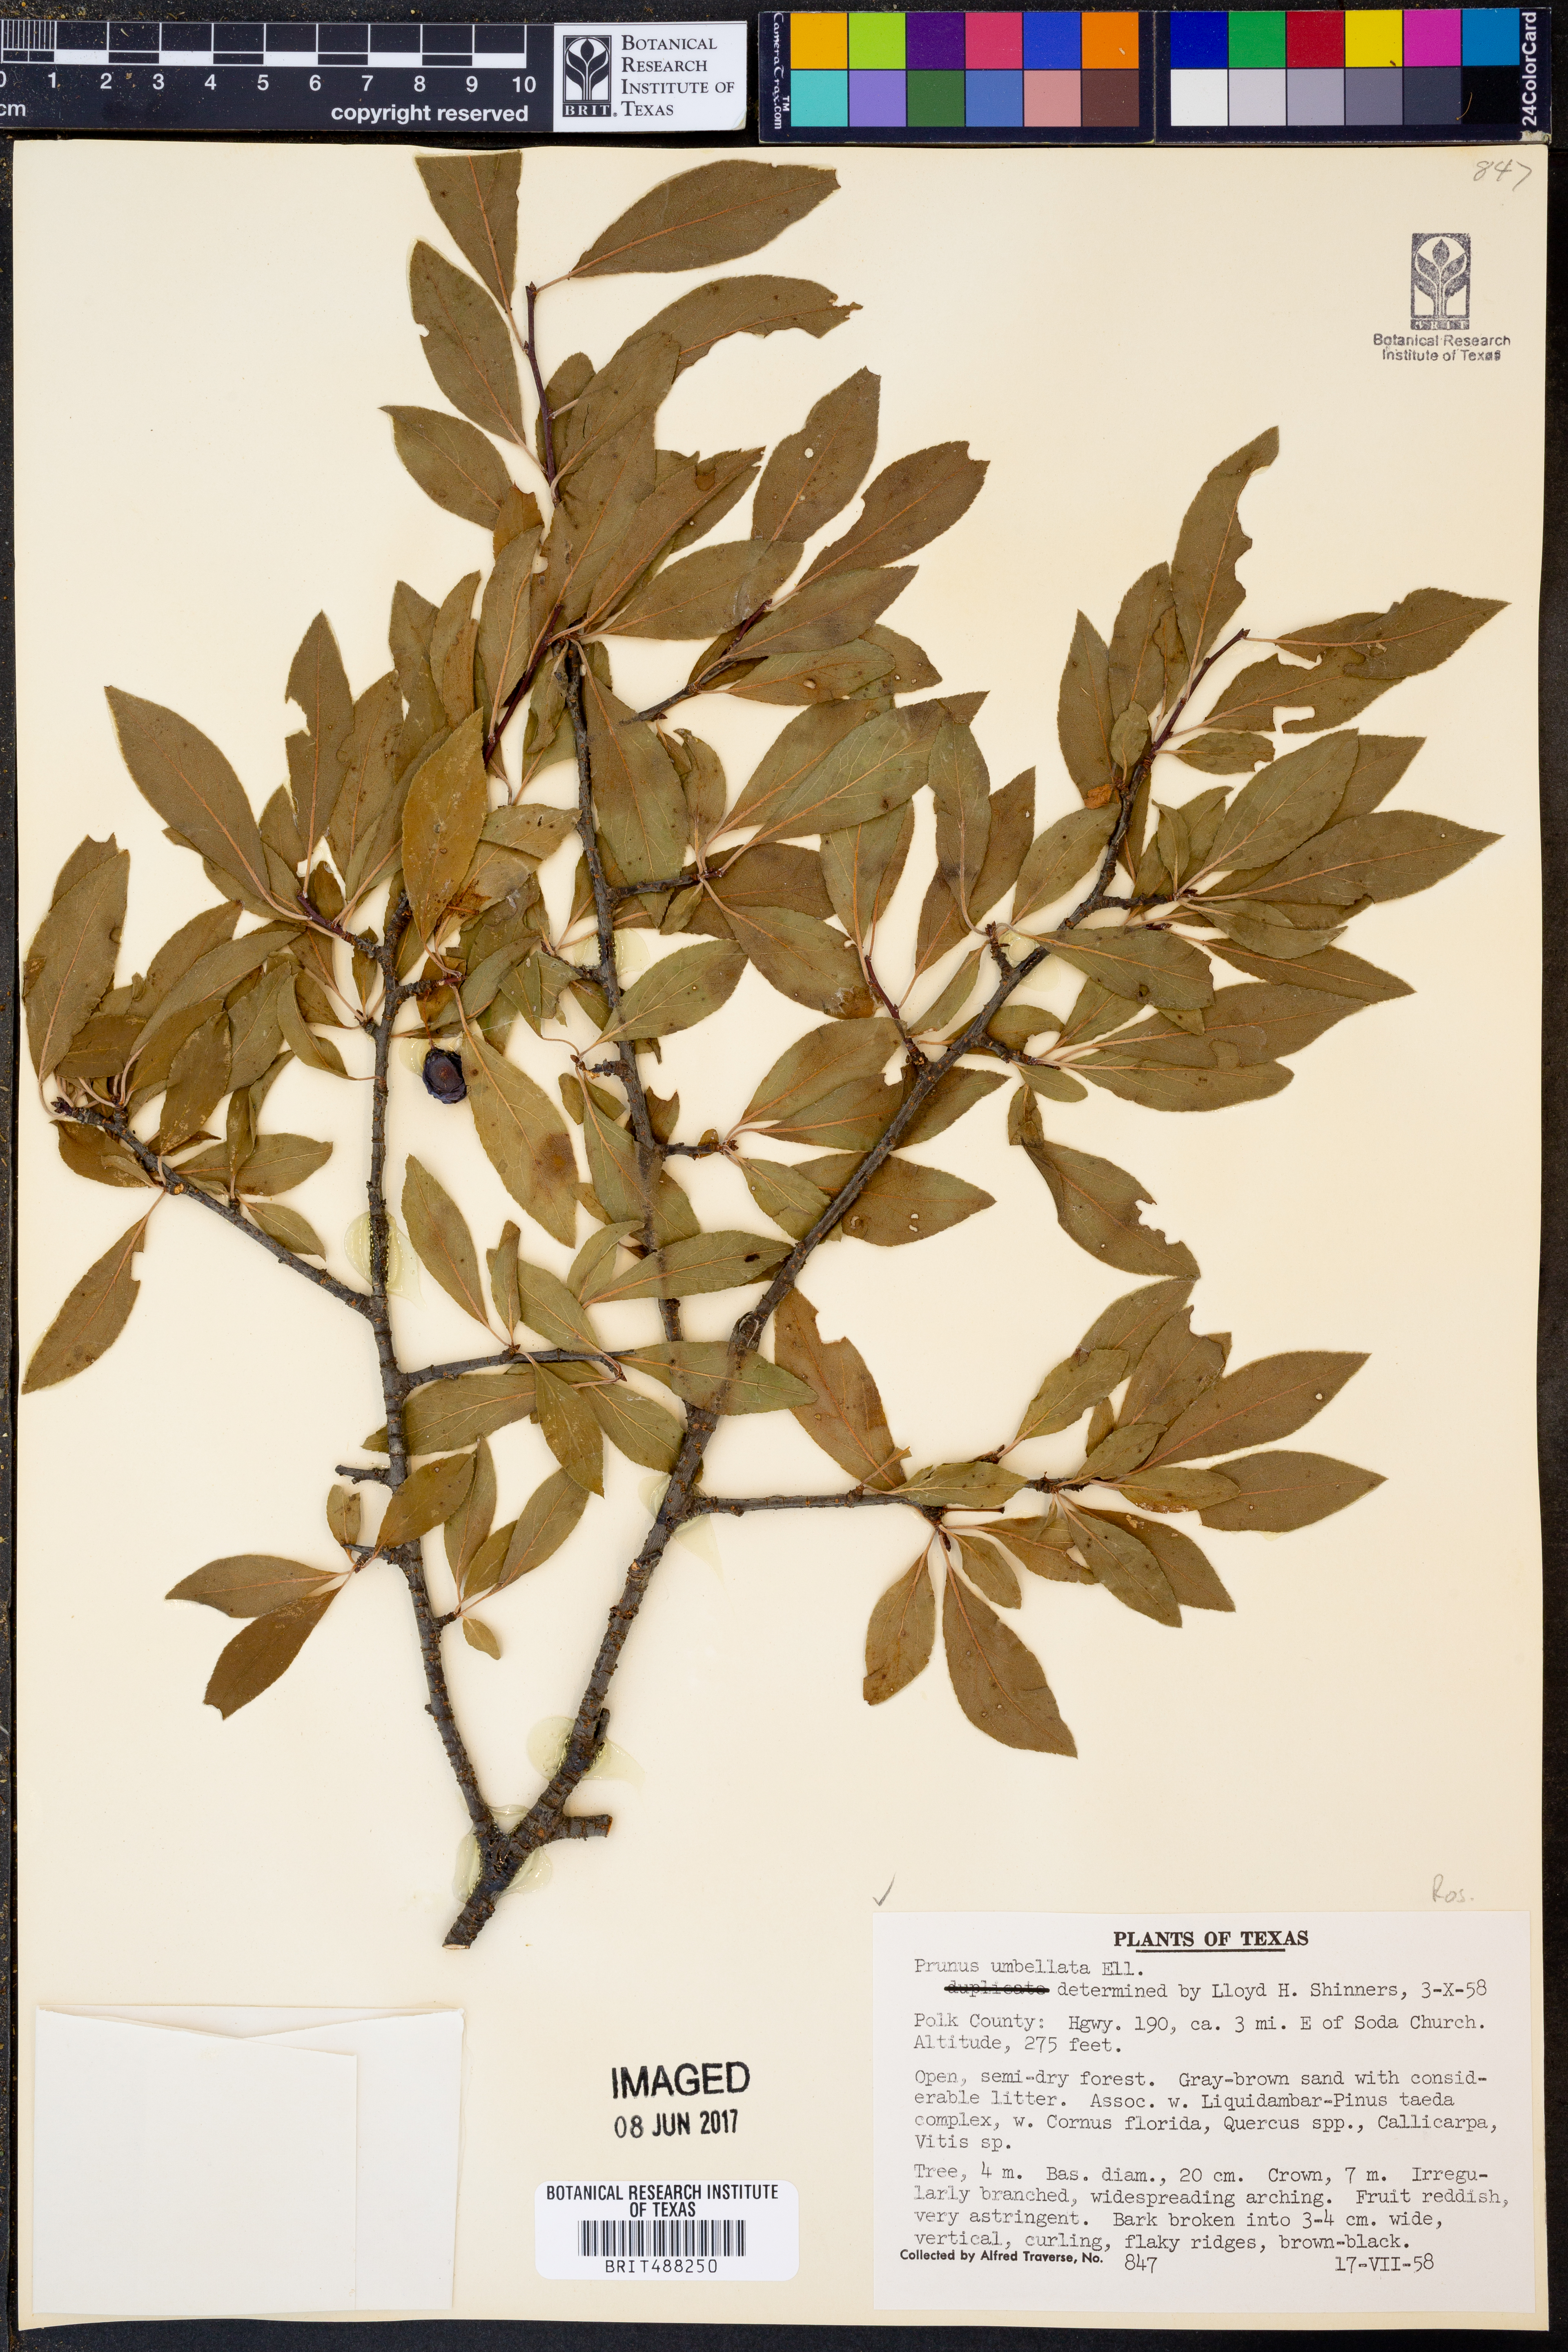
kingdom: Plantae
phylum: Tracheophyta
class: Magnoliopsida
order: Rosales
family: Rosaceae
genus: Prunus
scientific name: Prunus umbellata
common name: Allegheny plum
